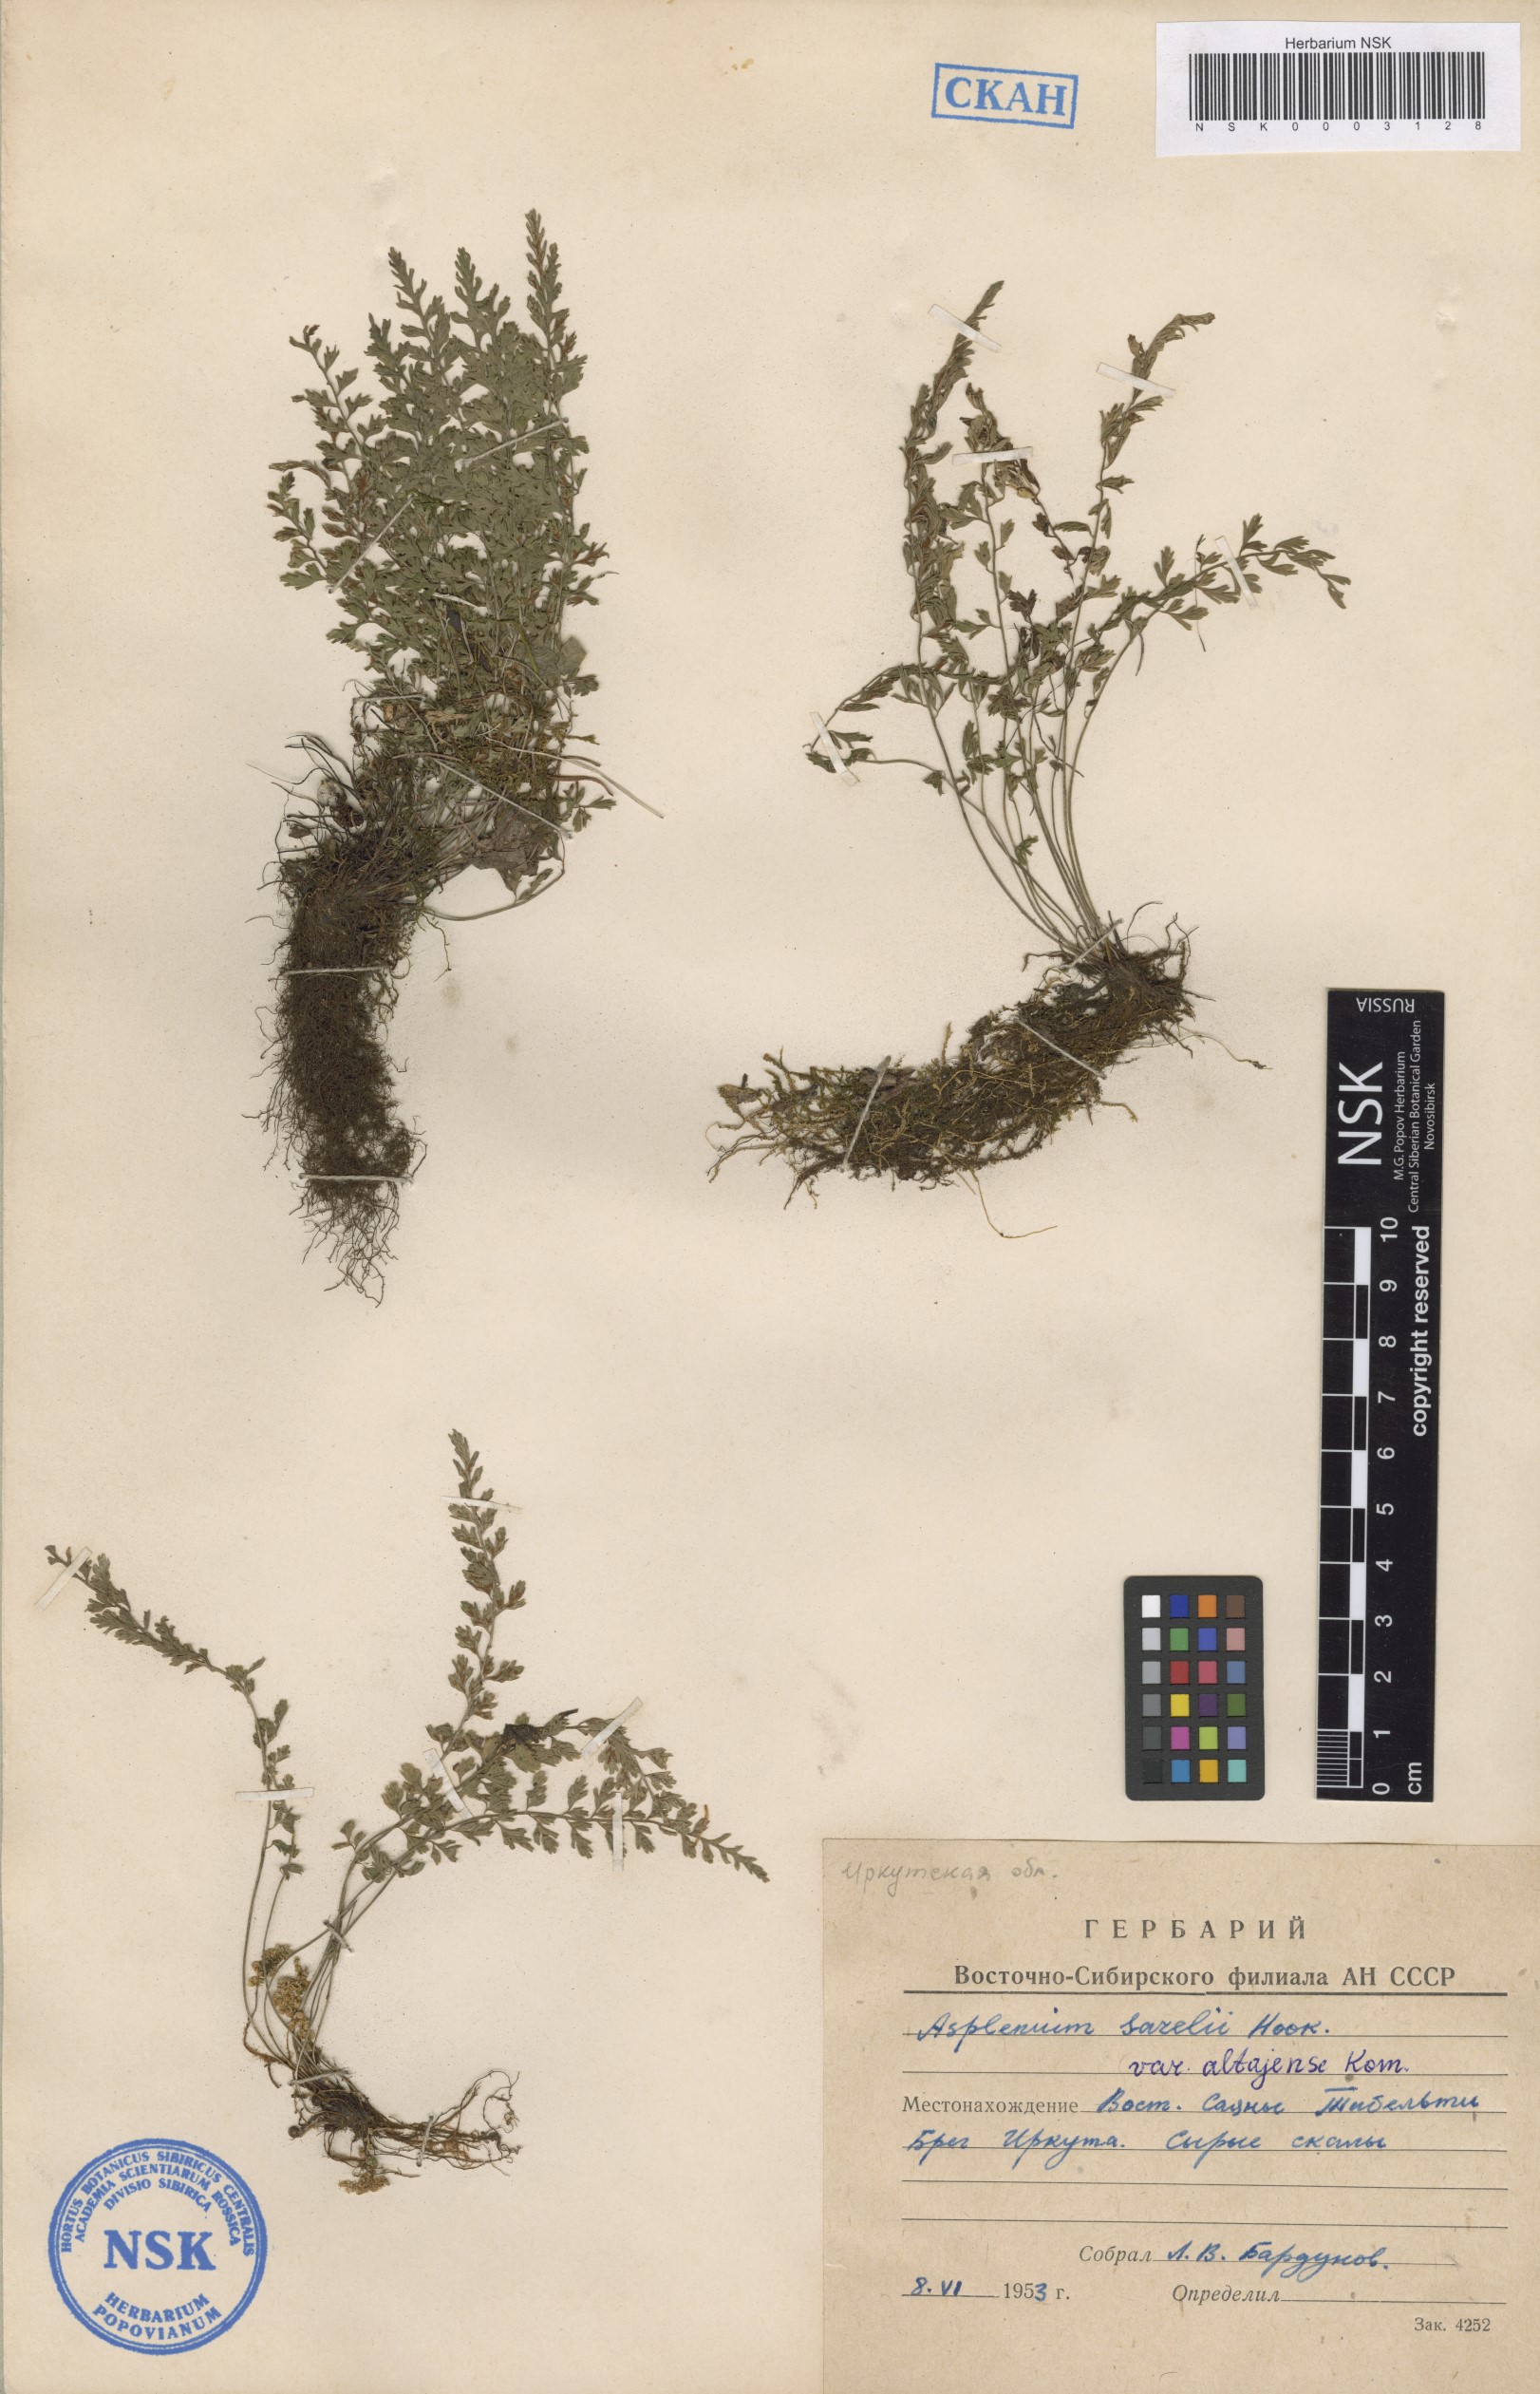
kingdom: Plantae
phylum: Tracheophyta
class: Polypodiopsida
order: Polypodiales
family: Aspleniaceae
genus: Asplenium
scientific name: Asplenium altajense
